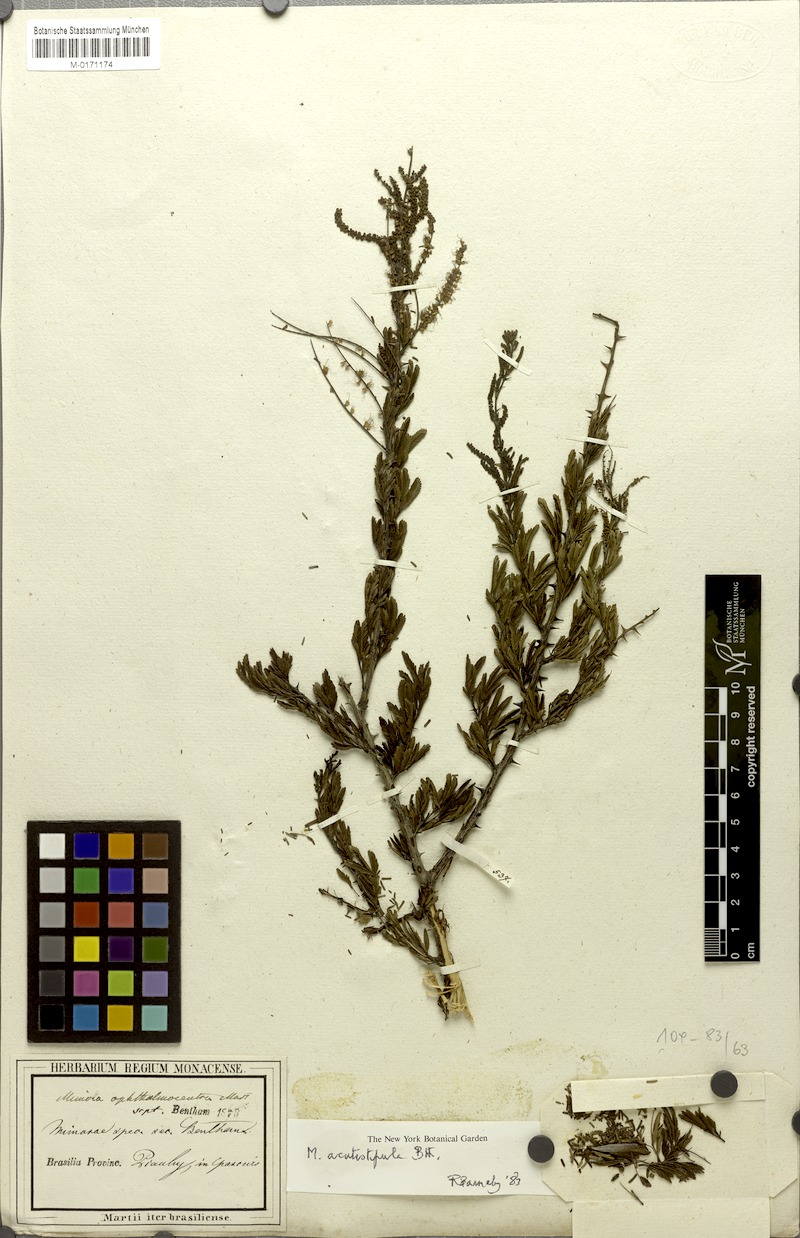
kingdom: Plantae
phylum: Tracheophyta
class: Magnoliopsida
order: Fabales
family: Fabaceae
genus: Mimosa
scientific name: Mimosa ophthalmocentra
